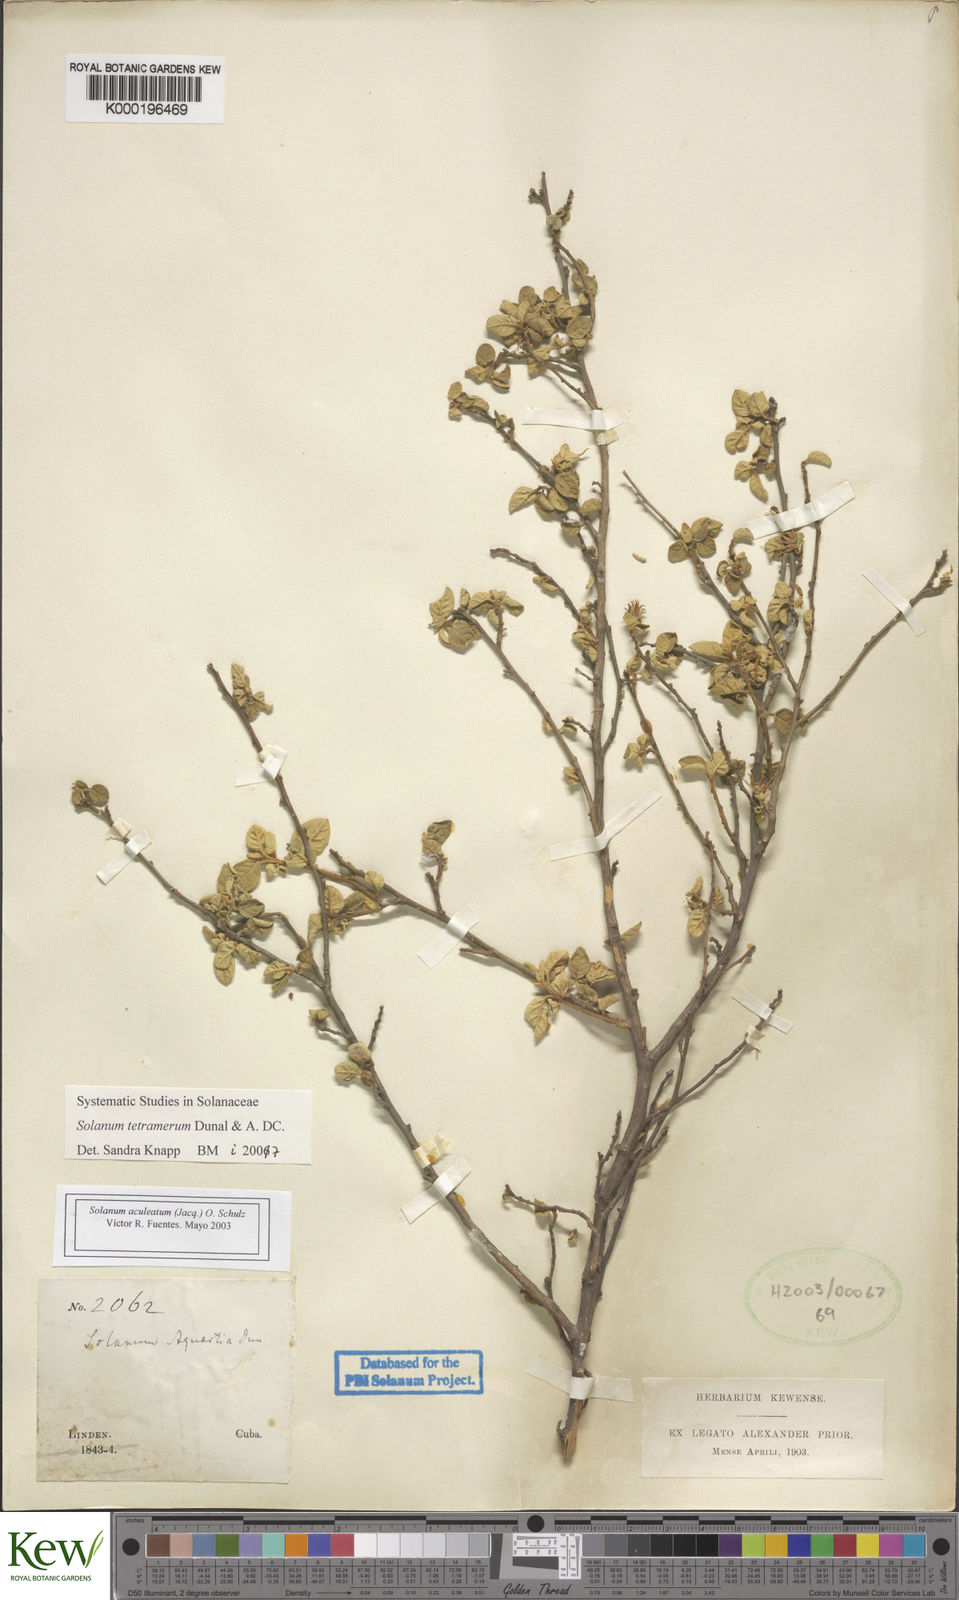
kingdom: Plantae
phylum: Tracheophyta
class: Magnoliopsida
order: Solanales
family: Solanaceae
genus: Solanum
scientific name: Solanum tetramerum
